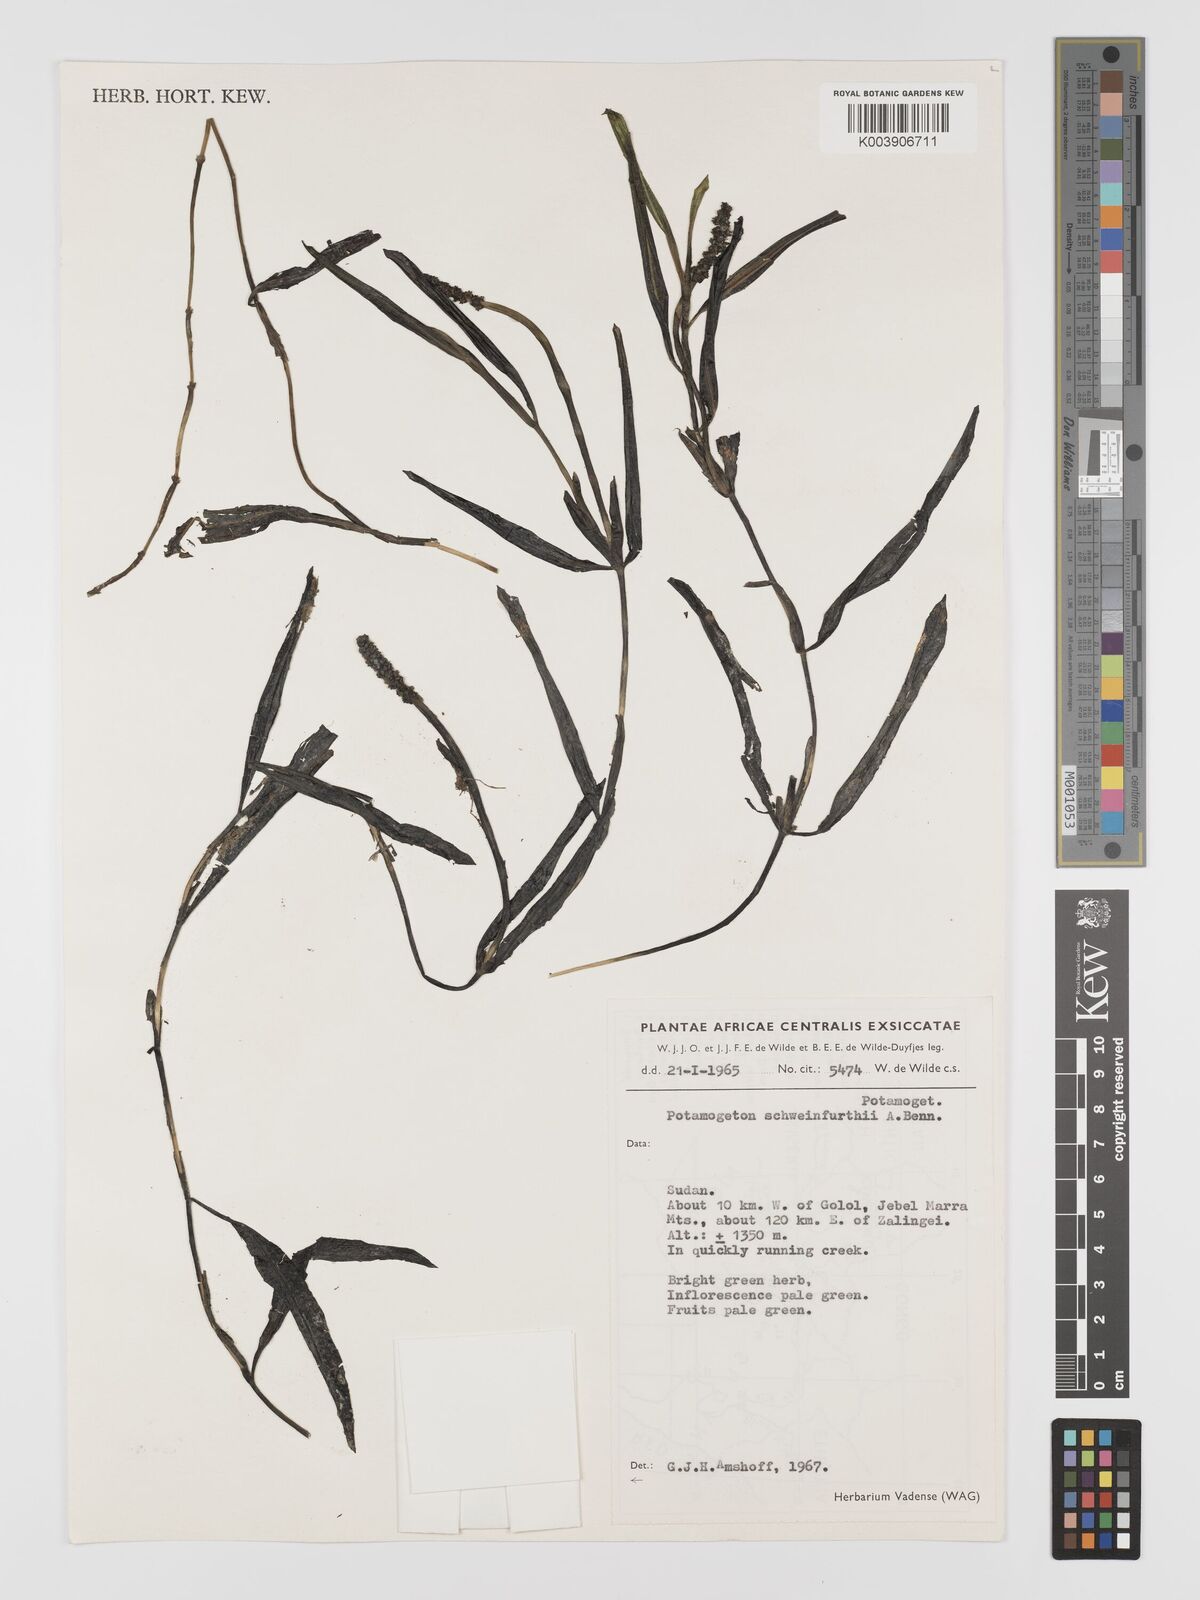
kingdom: Plantae
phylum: Tracheophyta
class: Liliopsida
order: Alismatales
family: Potamogetonaceae
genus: Potamogeton
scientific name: Potamogeton schweinfurthii
